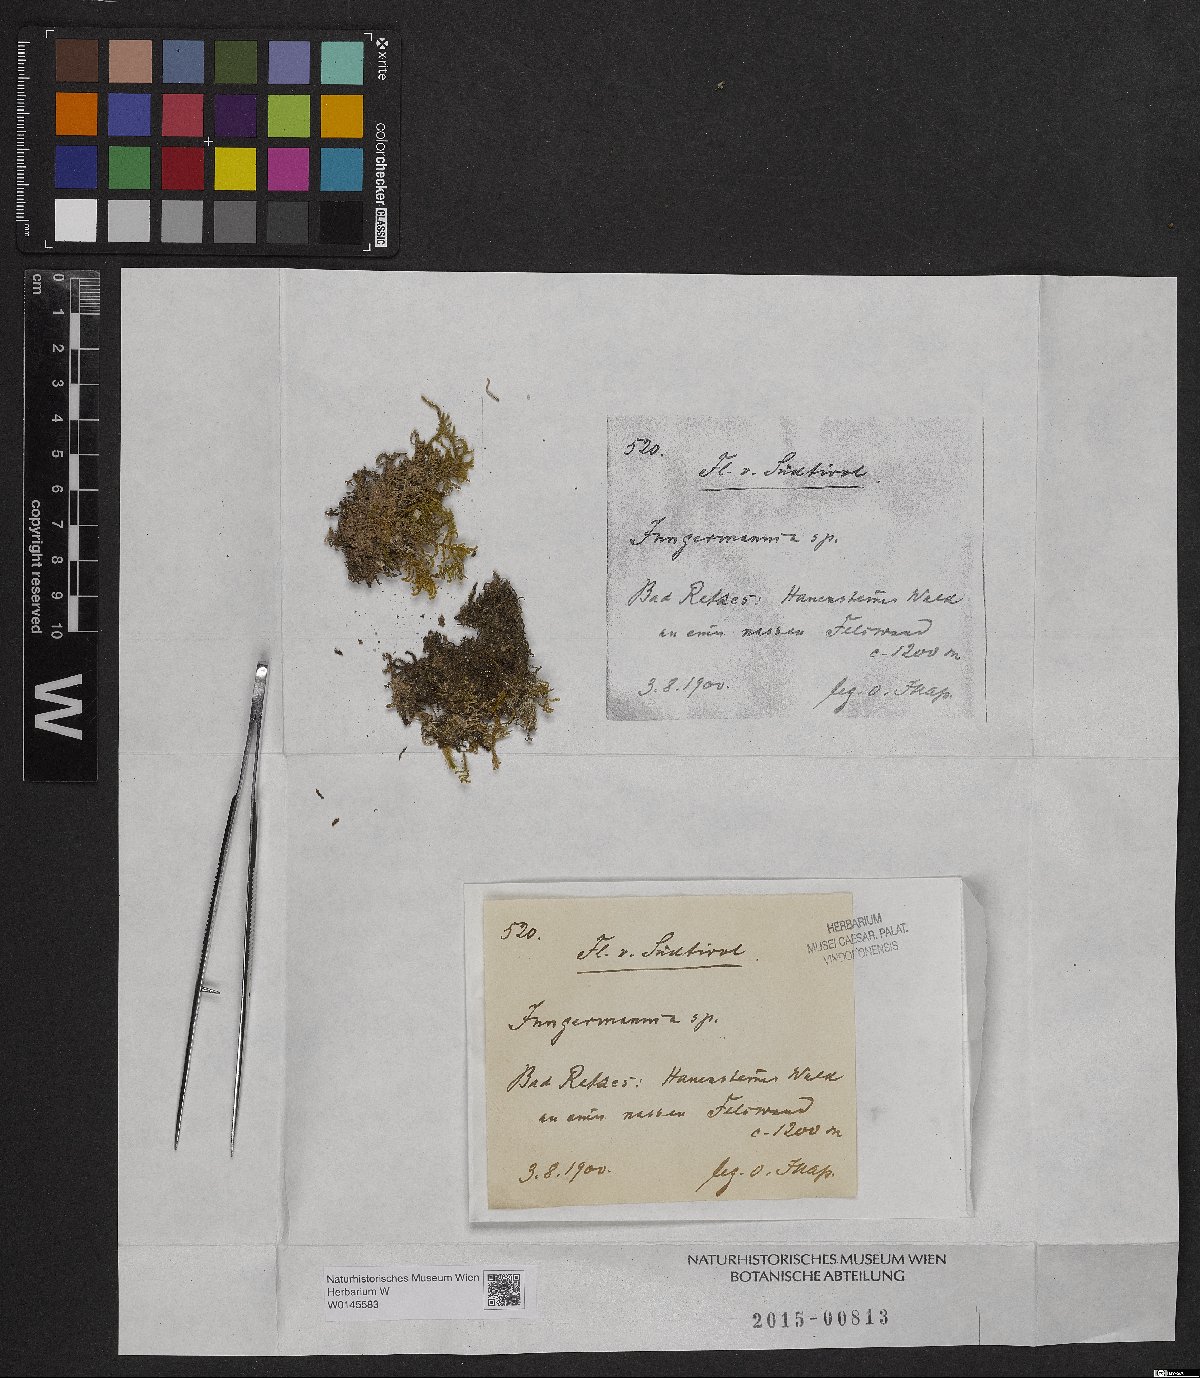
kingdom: Plantae
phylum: Marchantiophyta
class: Jungermanniopsida
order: Jungermanniales
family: Jungermanniaceae
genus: Jungermannia
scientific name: Jungermannia
